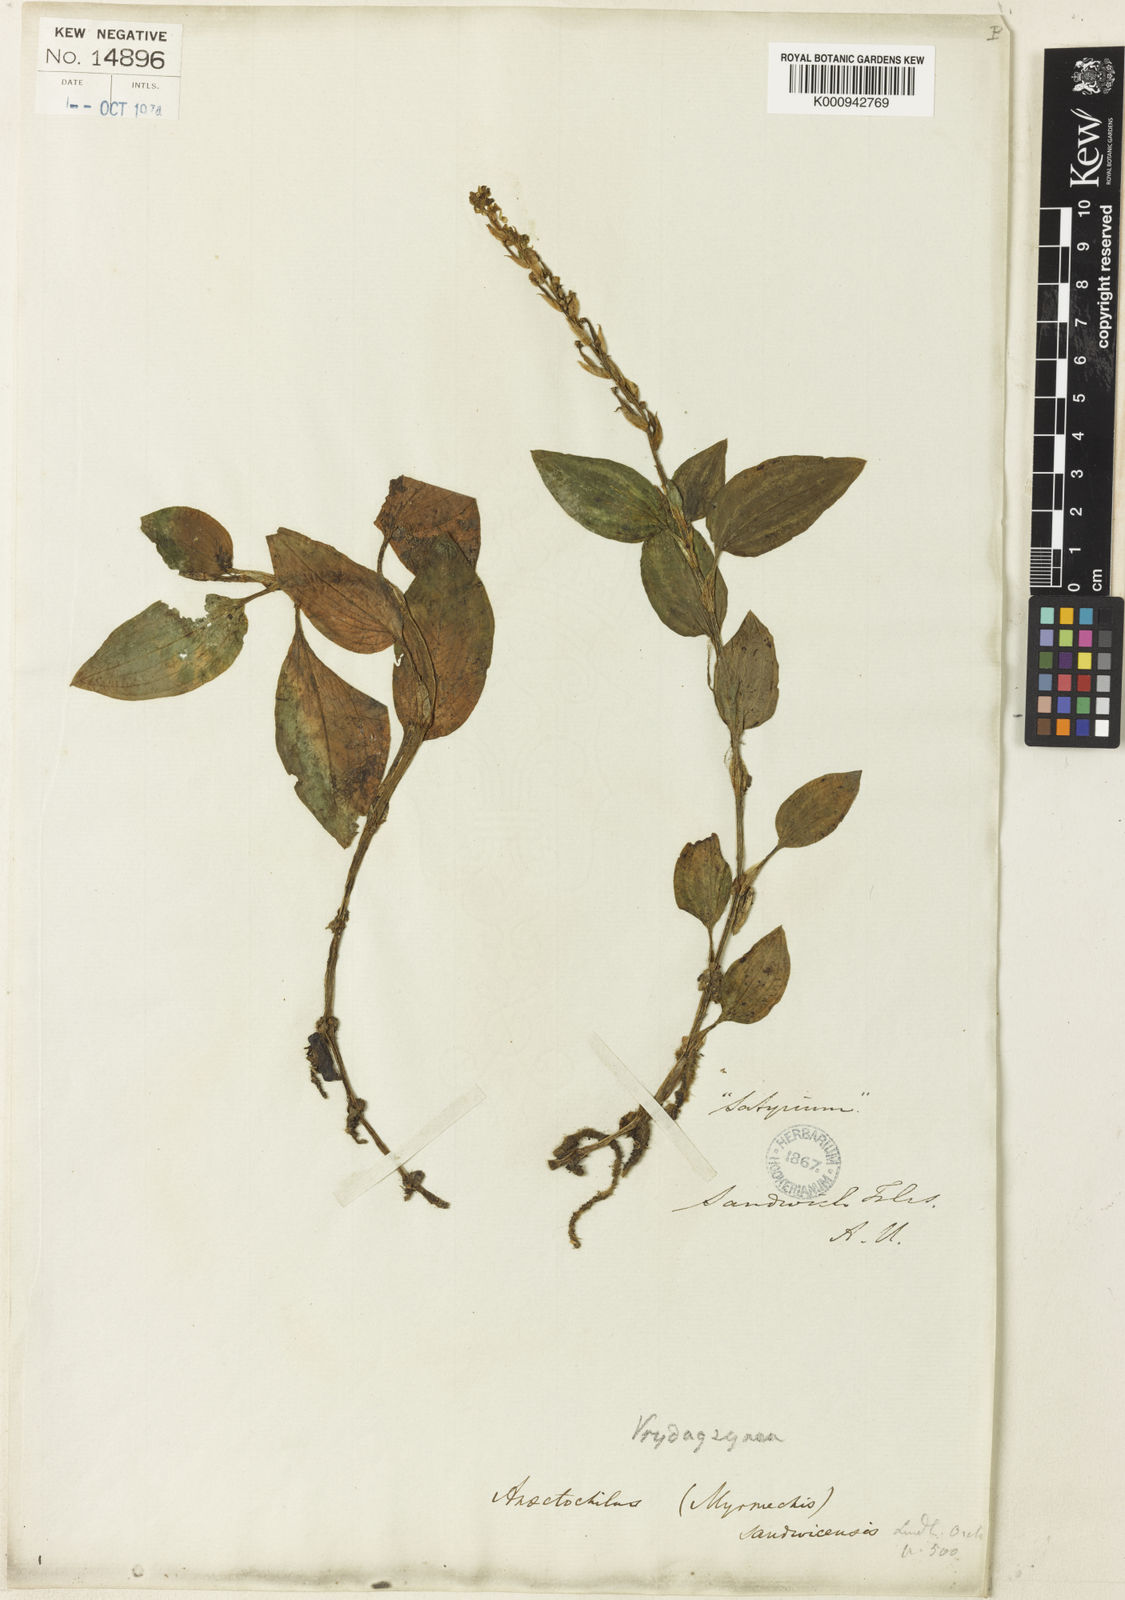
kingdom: Plantae
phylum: Tracheophyta
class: Liliopsida
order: Asparagales
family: Orchidaceae
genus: Anoectochilus
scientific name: Anoectochilus sandvicensis
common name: Hawaii jewel-orchid
